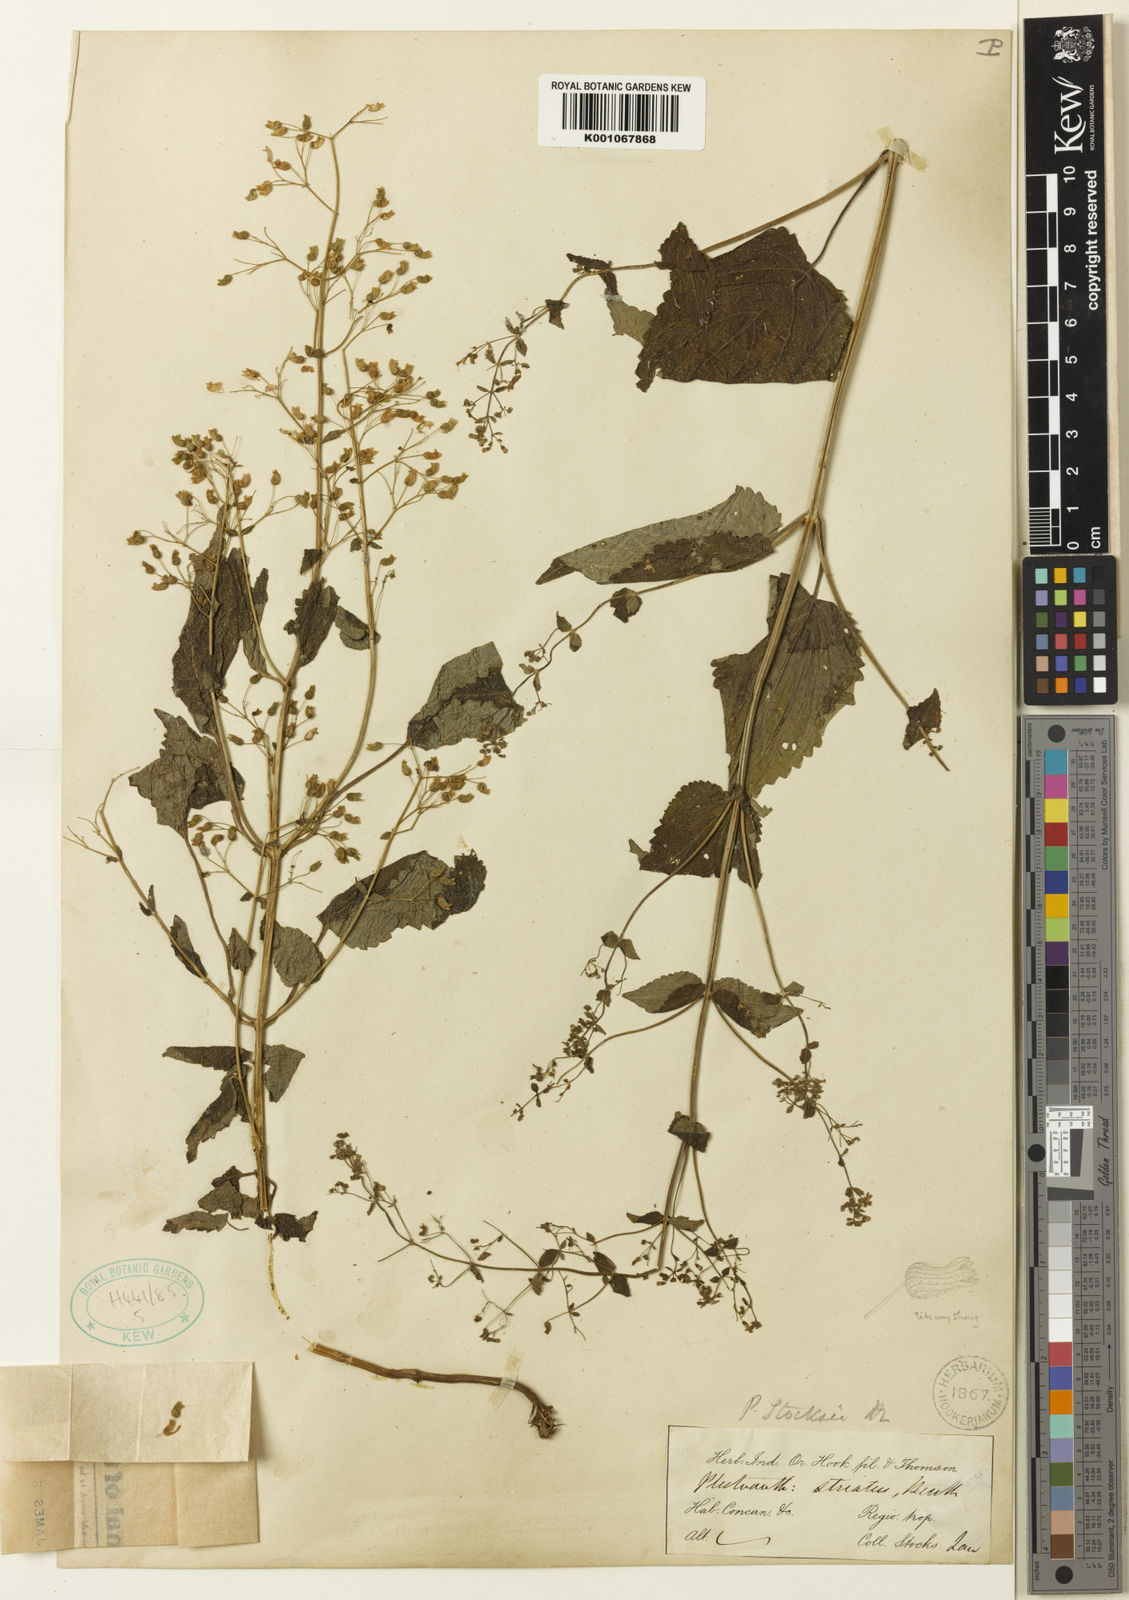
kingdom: Plantae
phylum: Tracheophyta
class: Magnoliopsida
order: Lamiales
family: Lamiaceae
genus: Isodon
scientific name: Isodon lophanthoides
